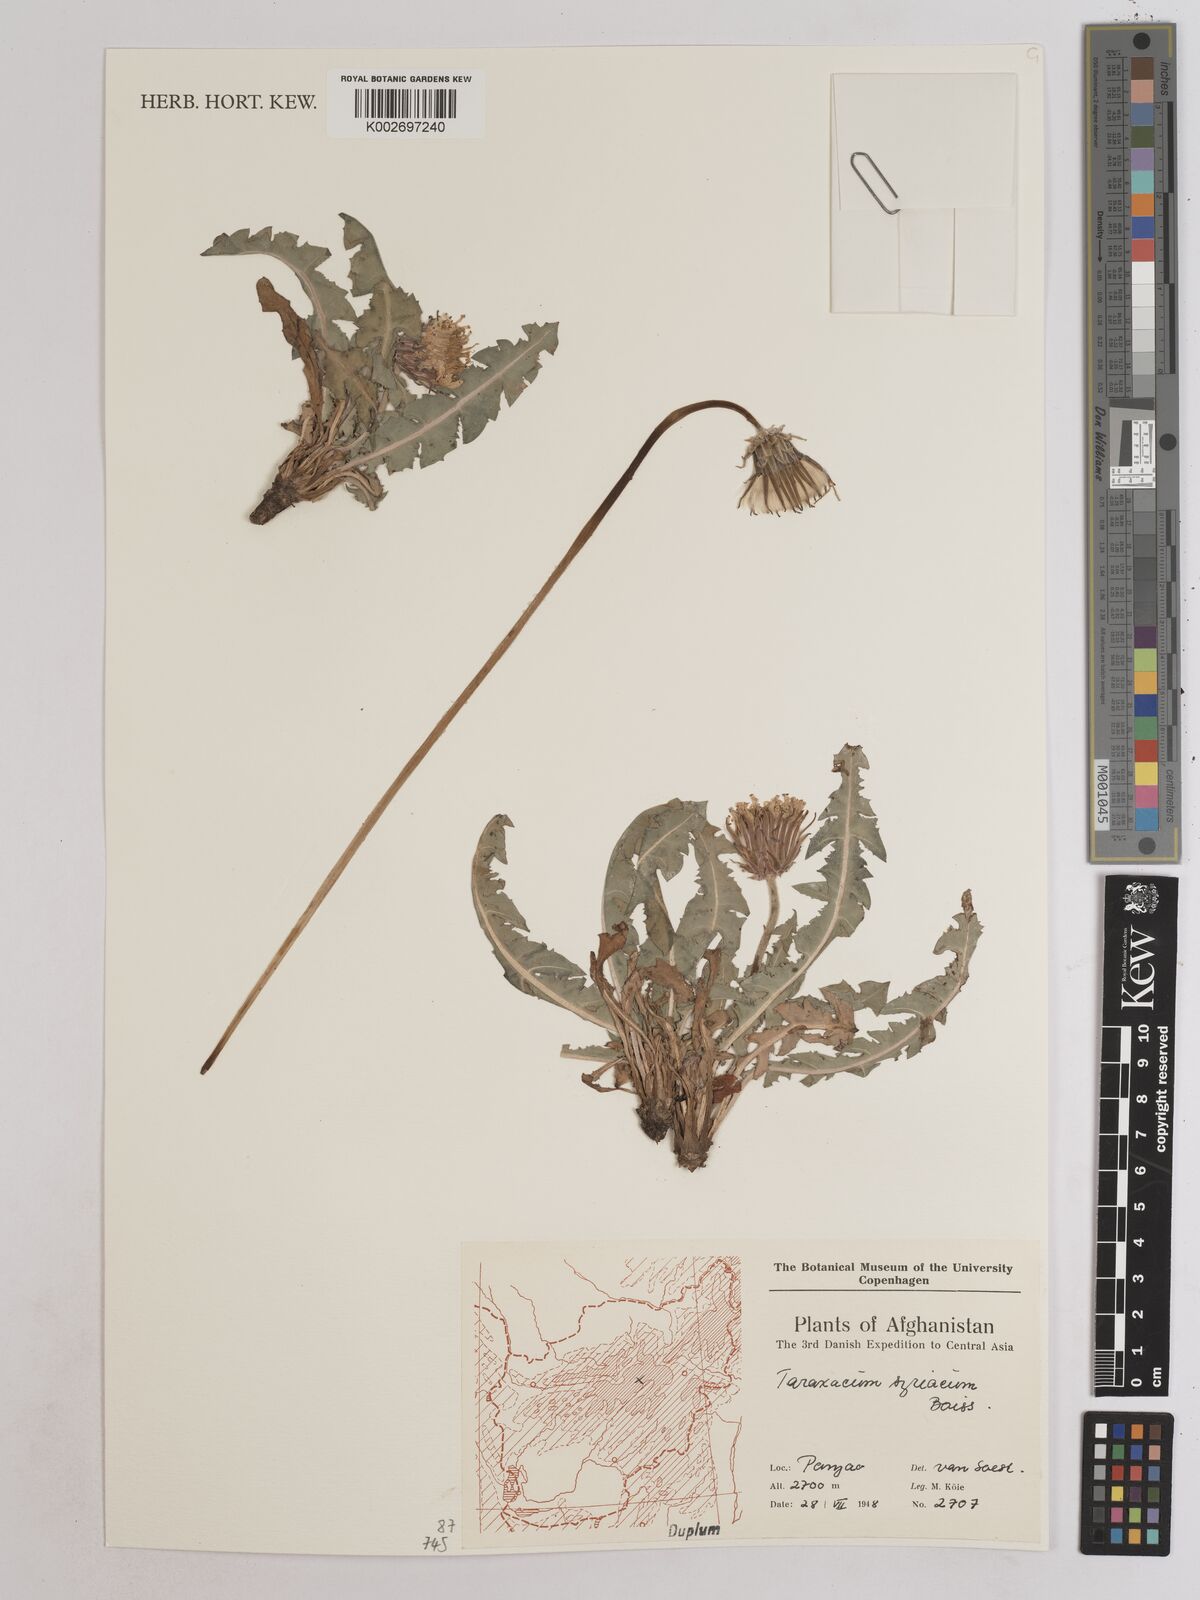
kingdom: Plantae
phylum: Tracheophyta
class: Magnoliopsida
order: Asterales
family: Asteraceae
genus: Taraxacum
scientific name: Taraxacum syriacum
